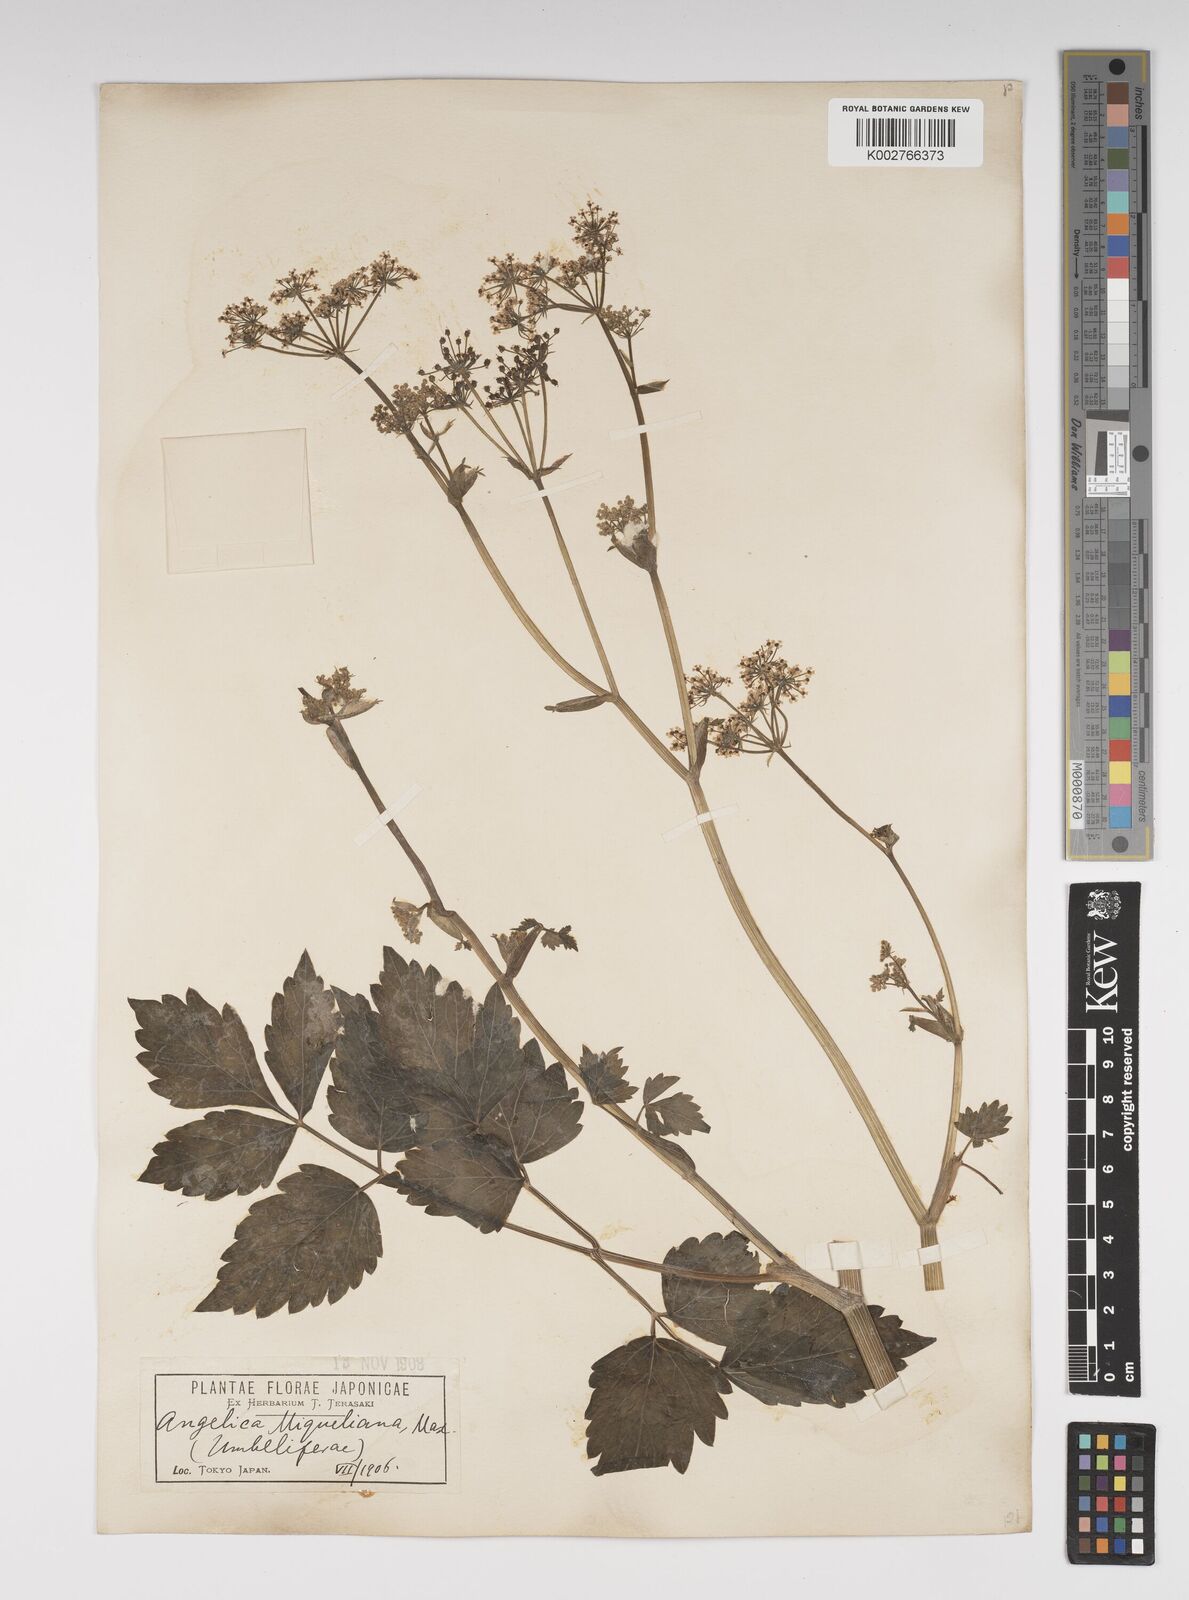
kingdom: Plantae
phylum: Tracheophyta
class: Magnoliopsida
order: Apiales
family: Apiaceae
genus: Ostericum
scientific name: Ostericum sieboldii
